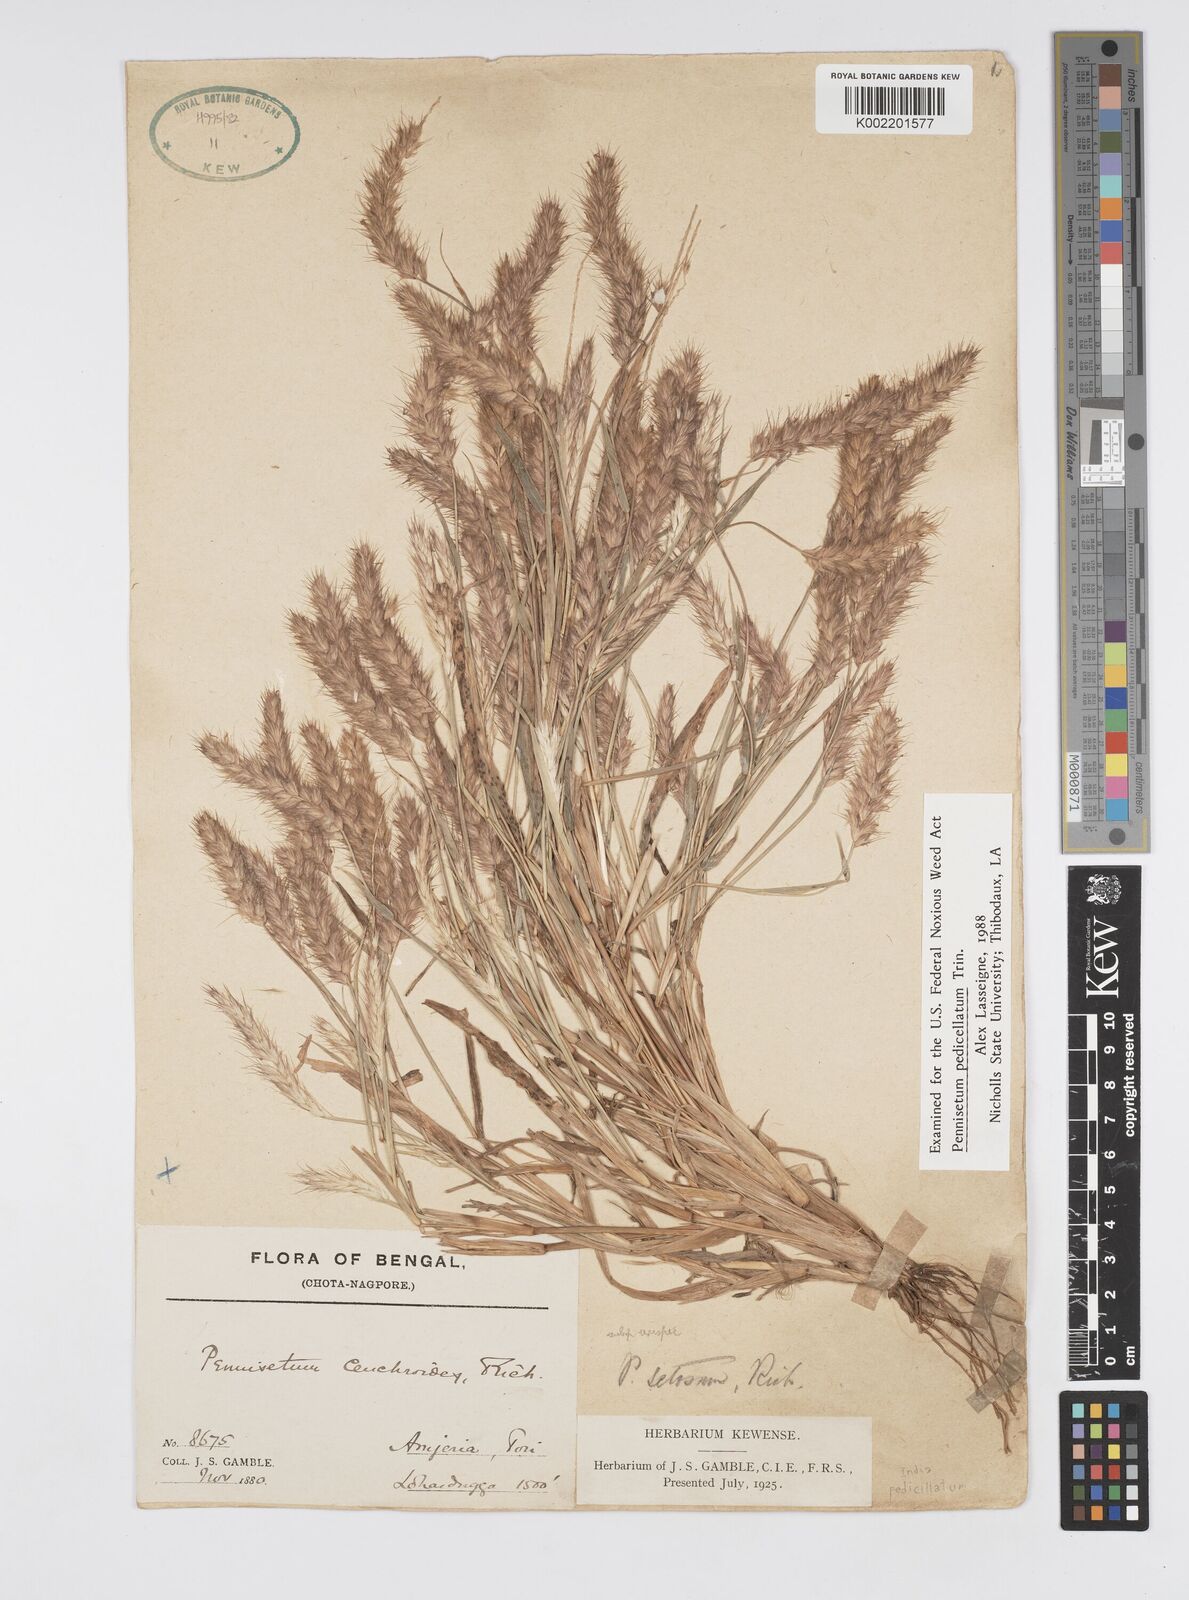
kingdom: Plantae
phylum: Tracheophyta
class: Liliopsida
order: Poales
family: Poaceae
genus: Cenchrus
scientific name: Cenchrus pedicellatus
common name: Hairy fountain grass
